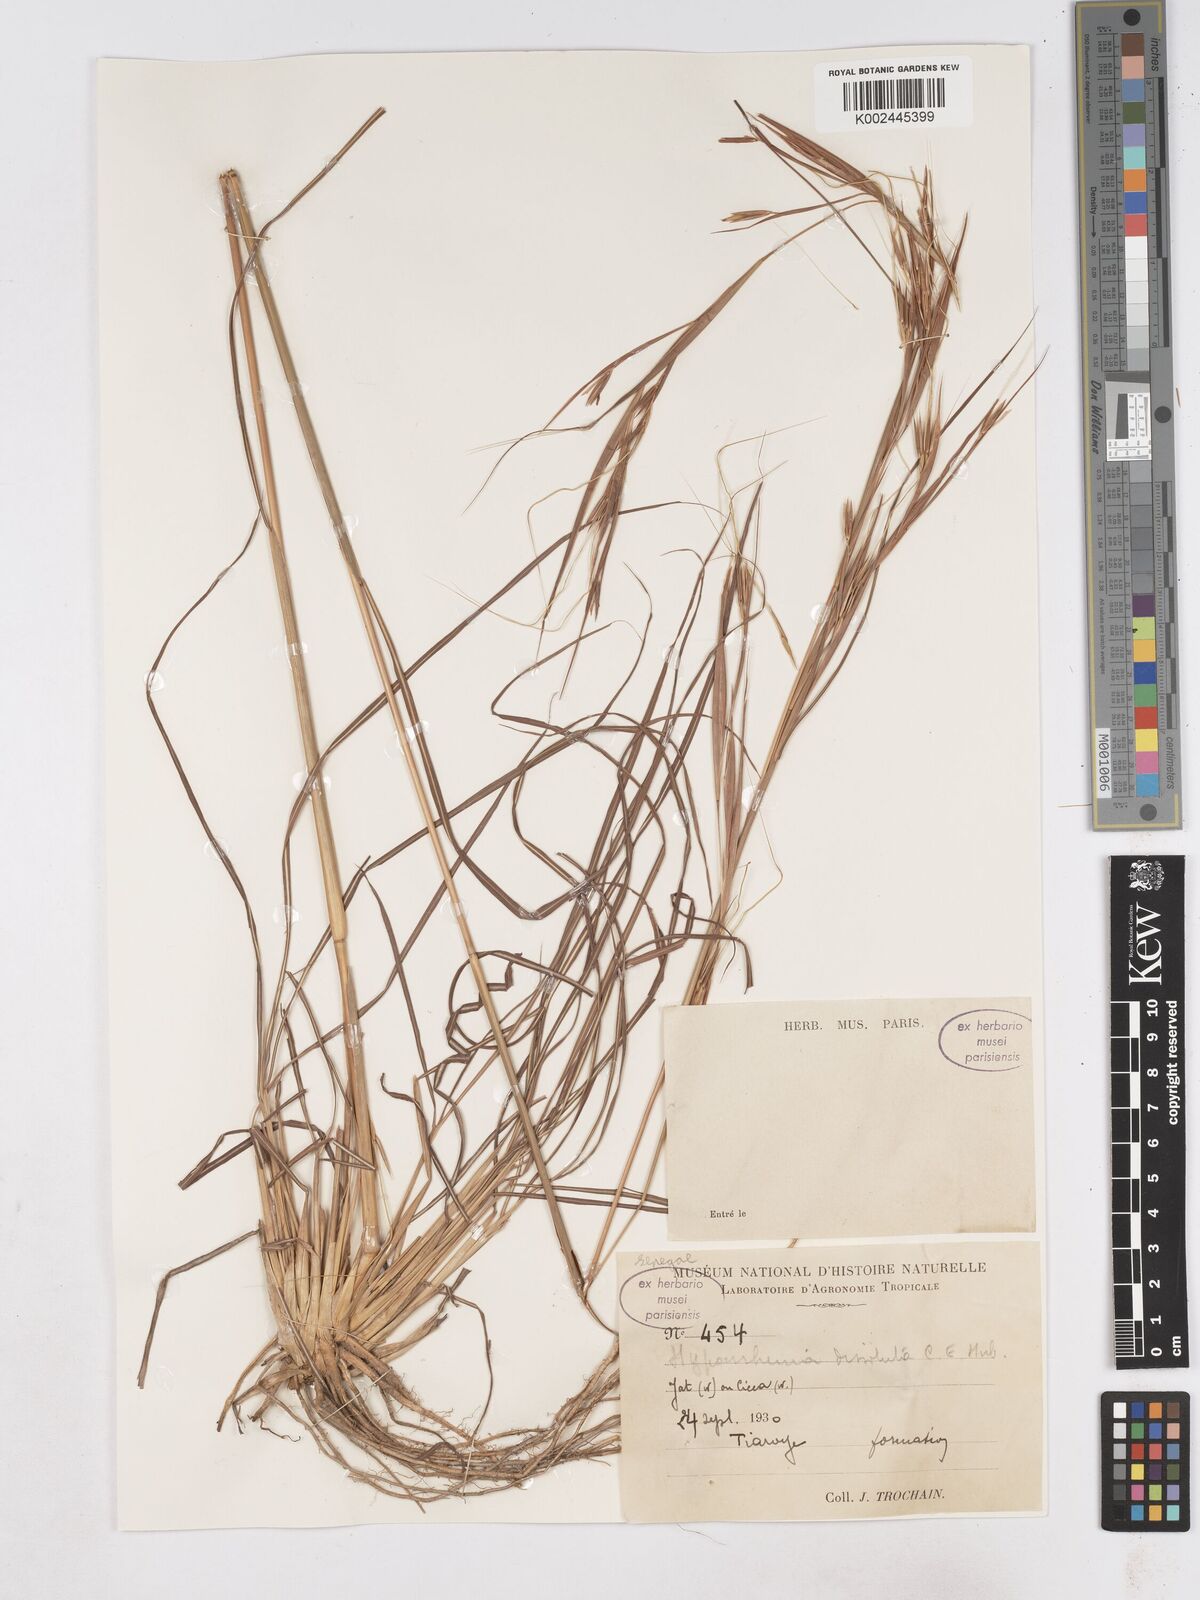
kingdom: Plantae
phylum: Tracheophyta
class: Liliopsida
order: Poales
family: Poaceae
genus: Hyperthelia
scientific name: Hyperthelia dissoluta
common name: Yellow thatching grass
